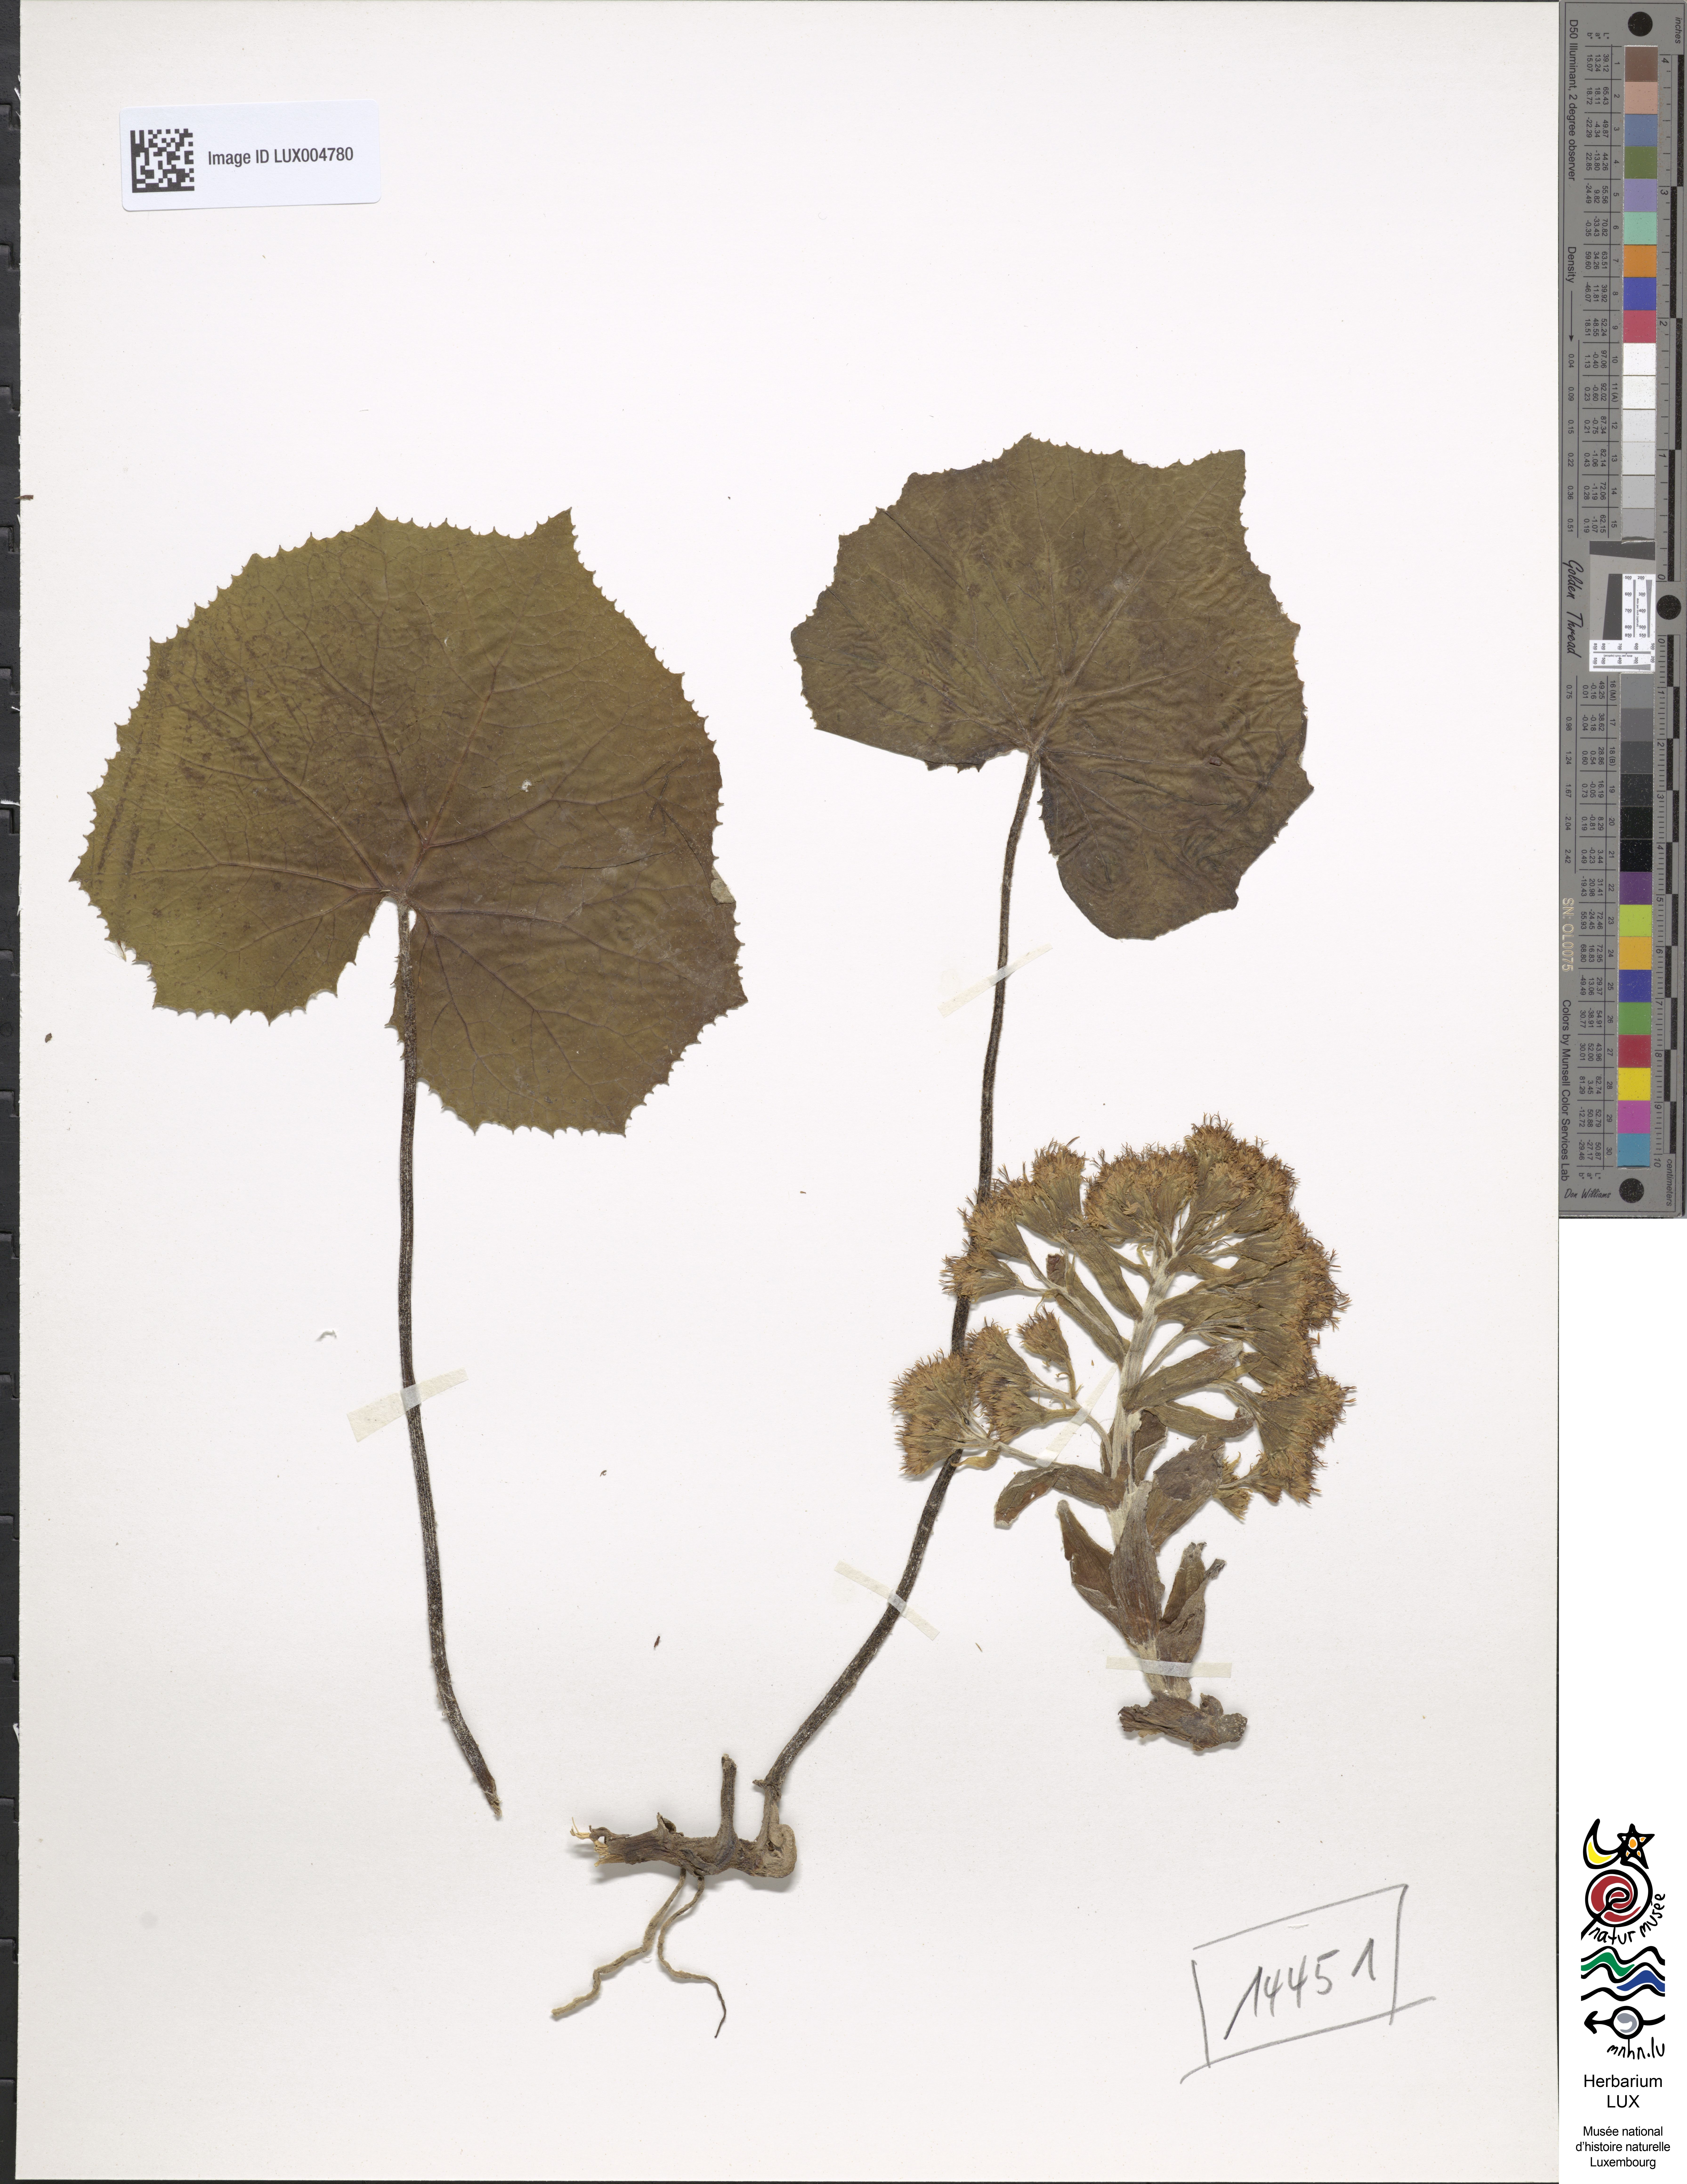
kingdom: Plantae
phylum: Tracheophyta
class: Magnoliopsida
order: Asterales
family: Asteraceae
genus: Petasites
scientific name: Petasites albus
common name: White butterbur
